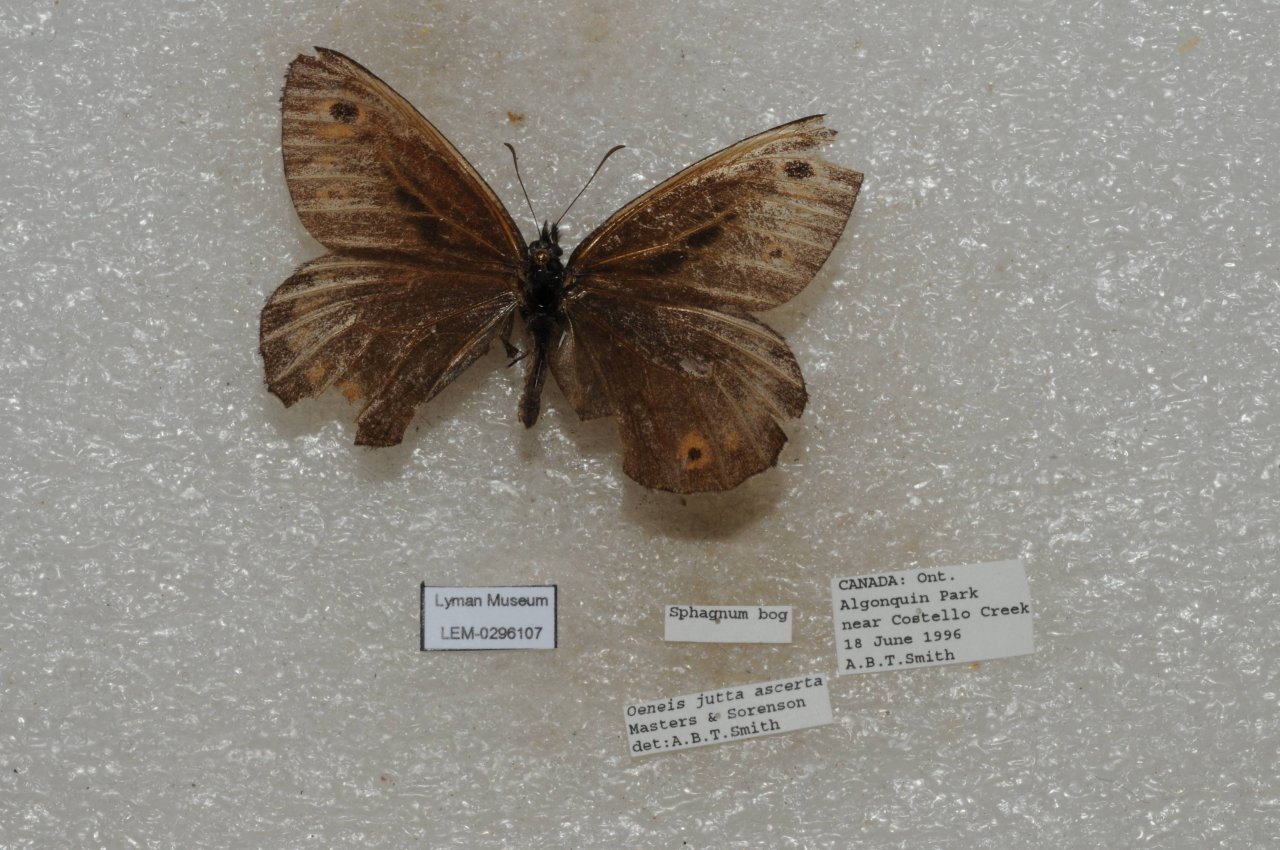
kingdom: Animalia
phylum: Arthropoda
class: Insecta
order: Lepidoptera
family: Nymphalidae
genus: Oeneis
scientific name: Oeneis jutta
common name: Jutta Arctic
